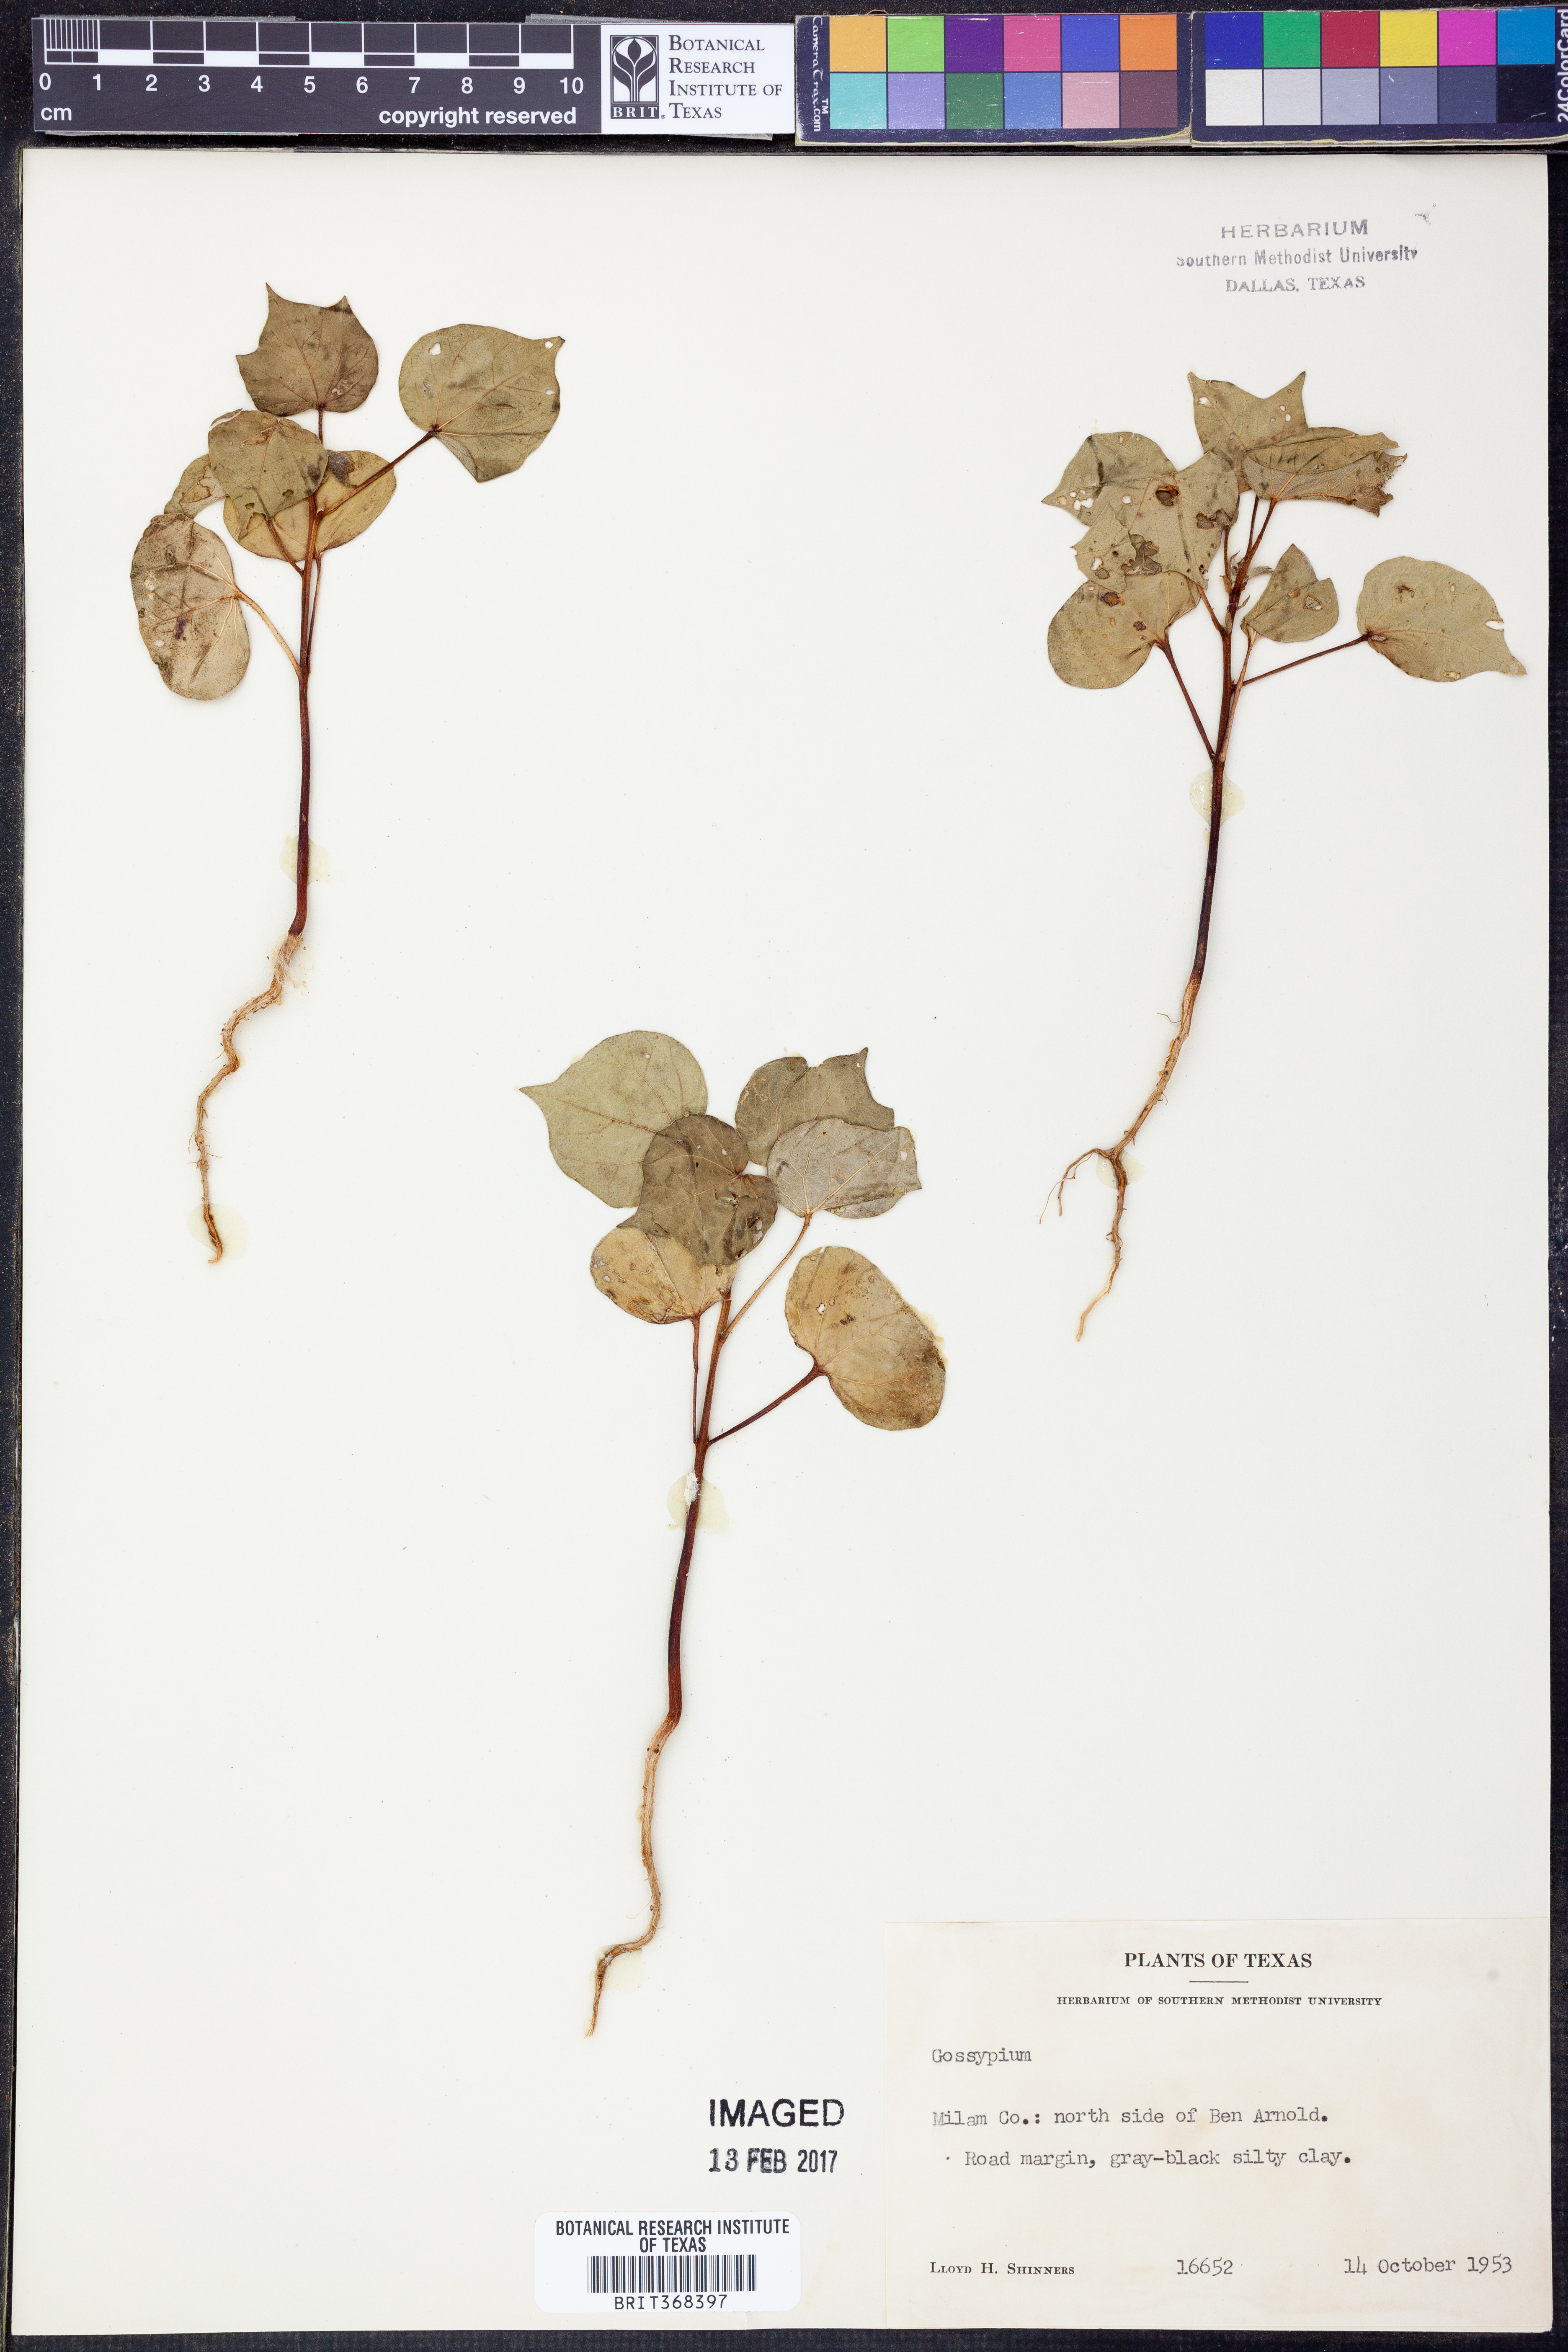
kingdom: Plantae
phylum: Tracheophyta
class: Magnoliopsida
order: Malvales
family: Malvaceae
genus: Gossypium
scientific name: Gossypium
